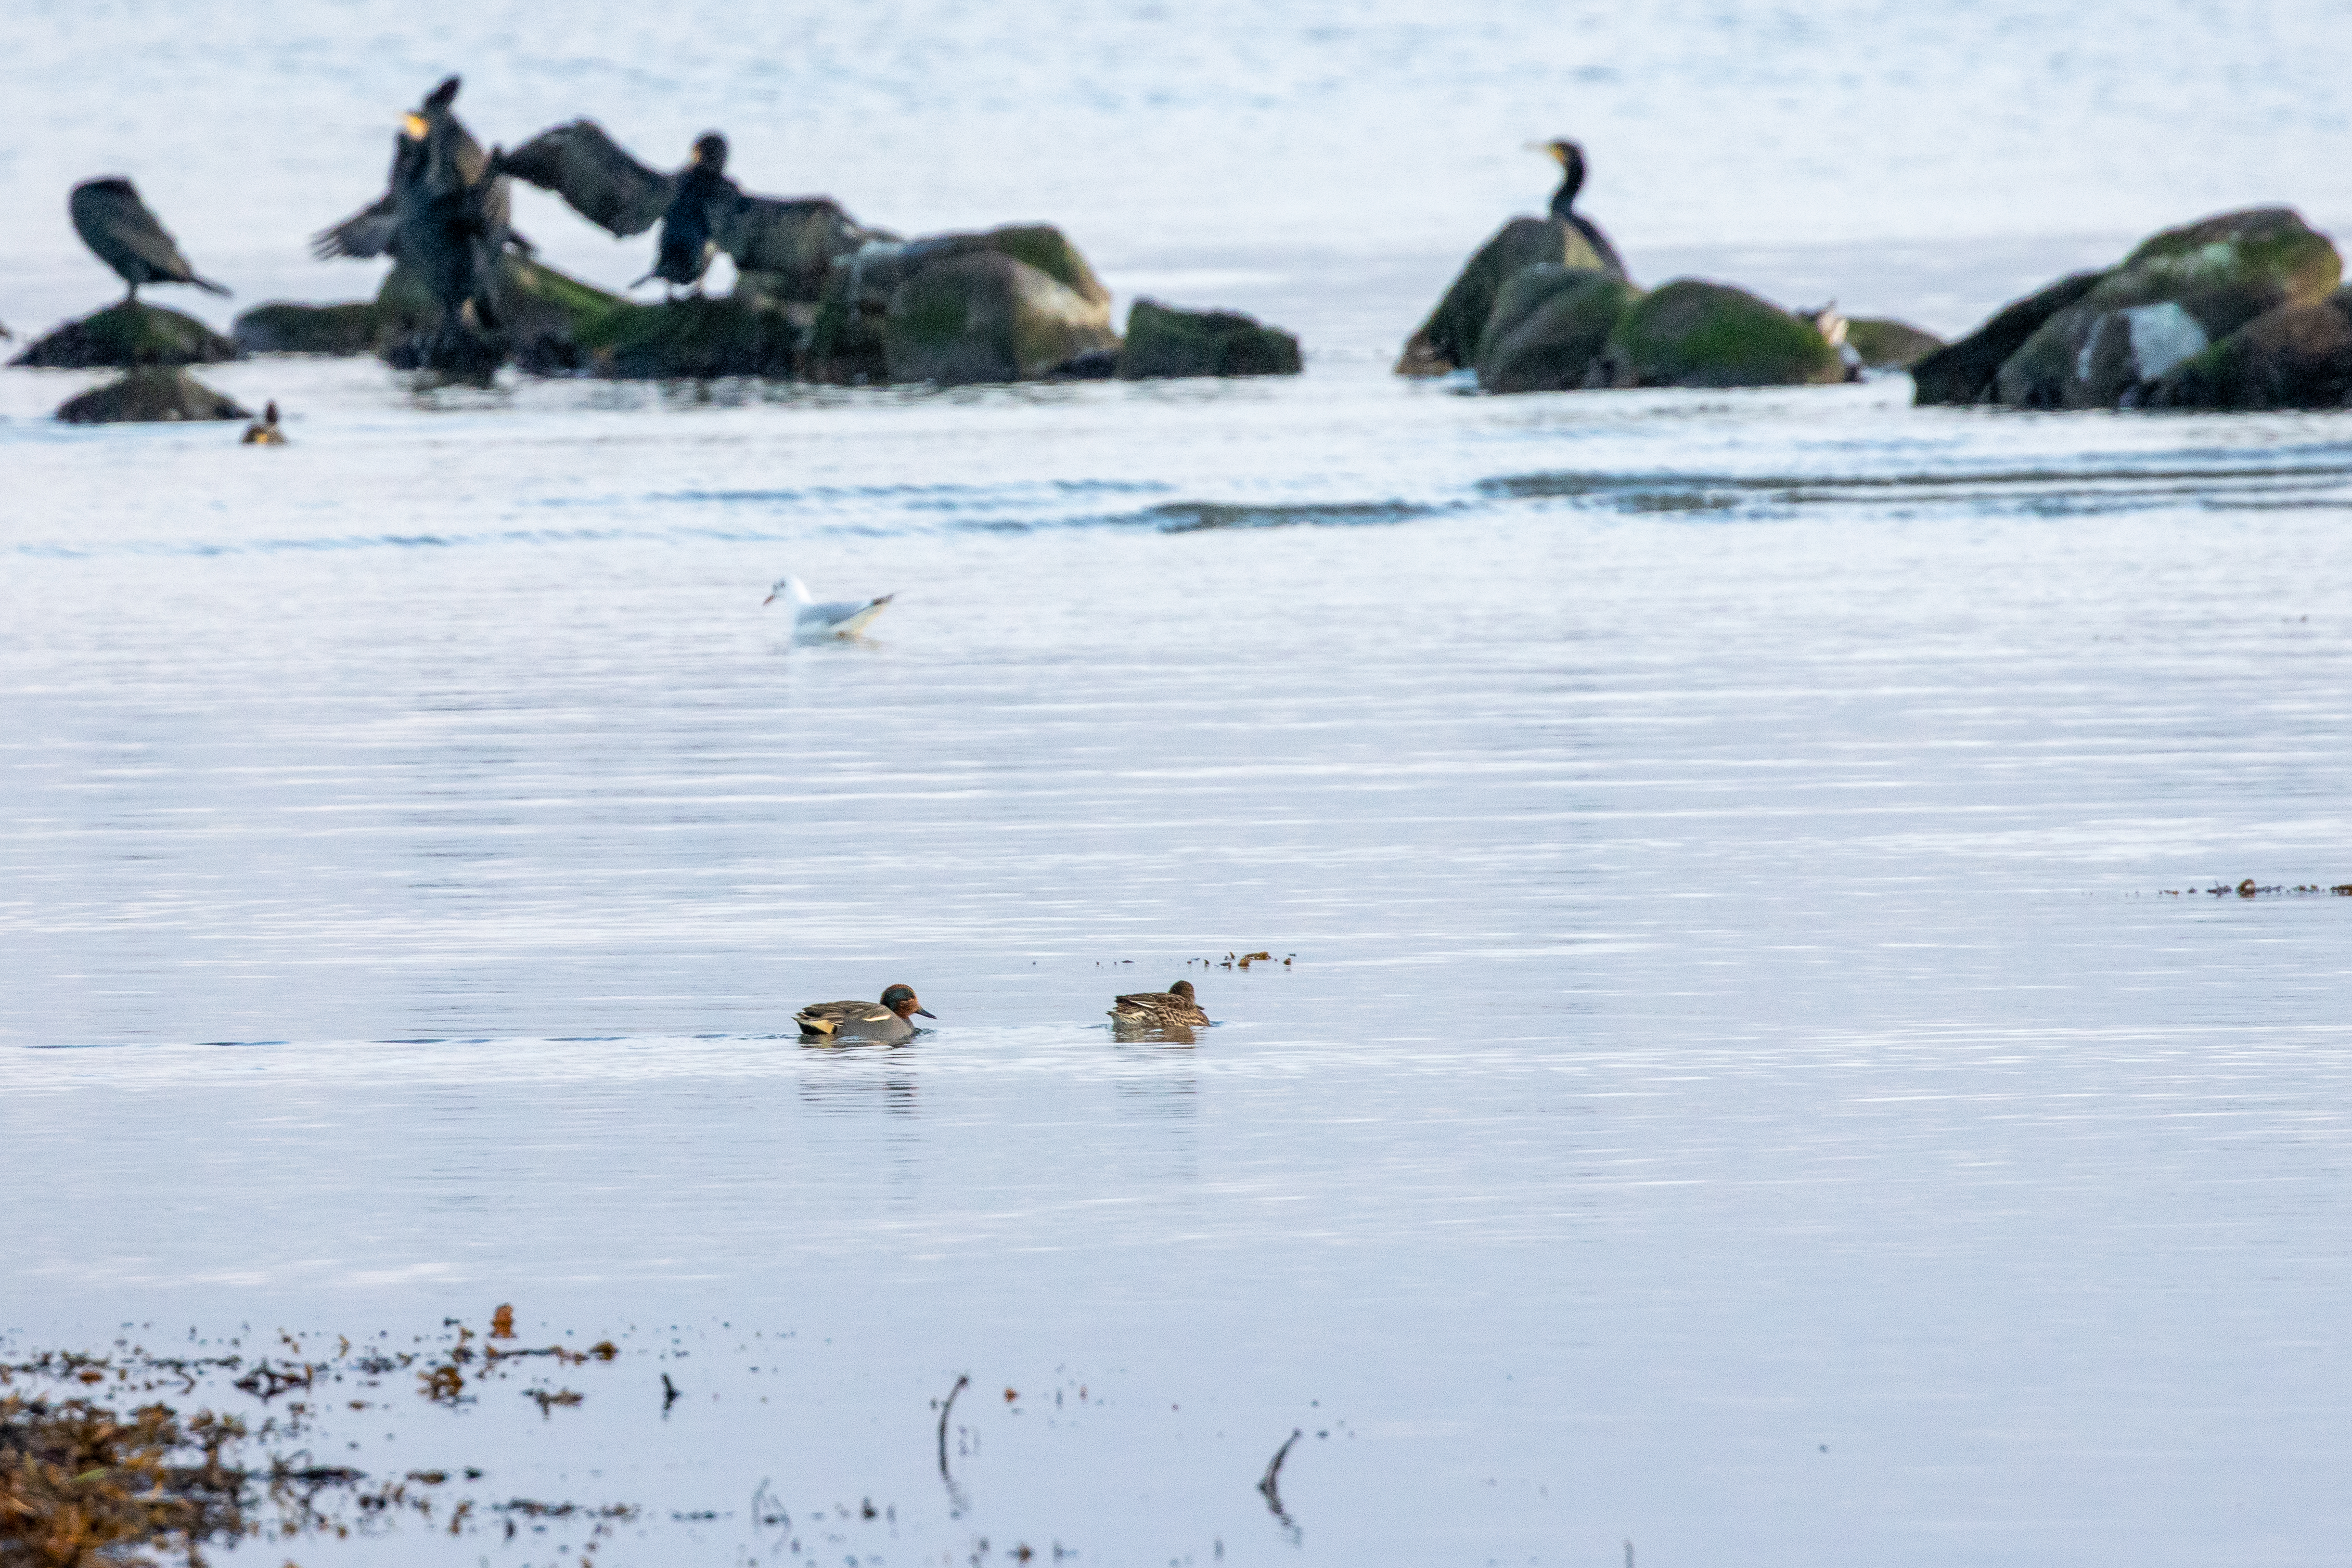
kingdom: Animalia
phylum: Chordata
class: Aves
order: Anseriformes
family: Anatidae
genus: Anas
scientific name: Anas crecca
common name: Krikand
